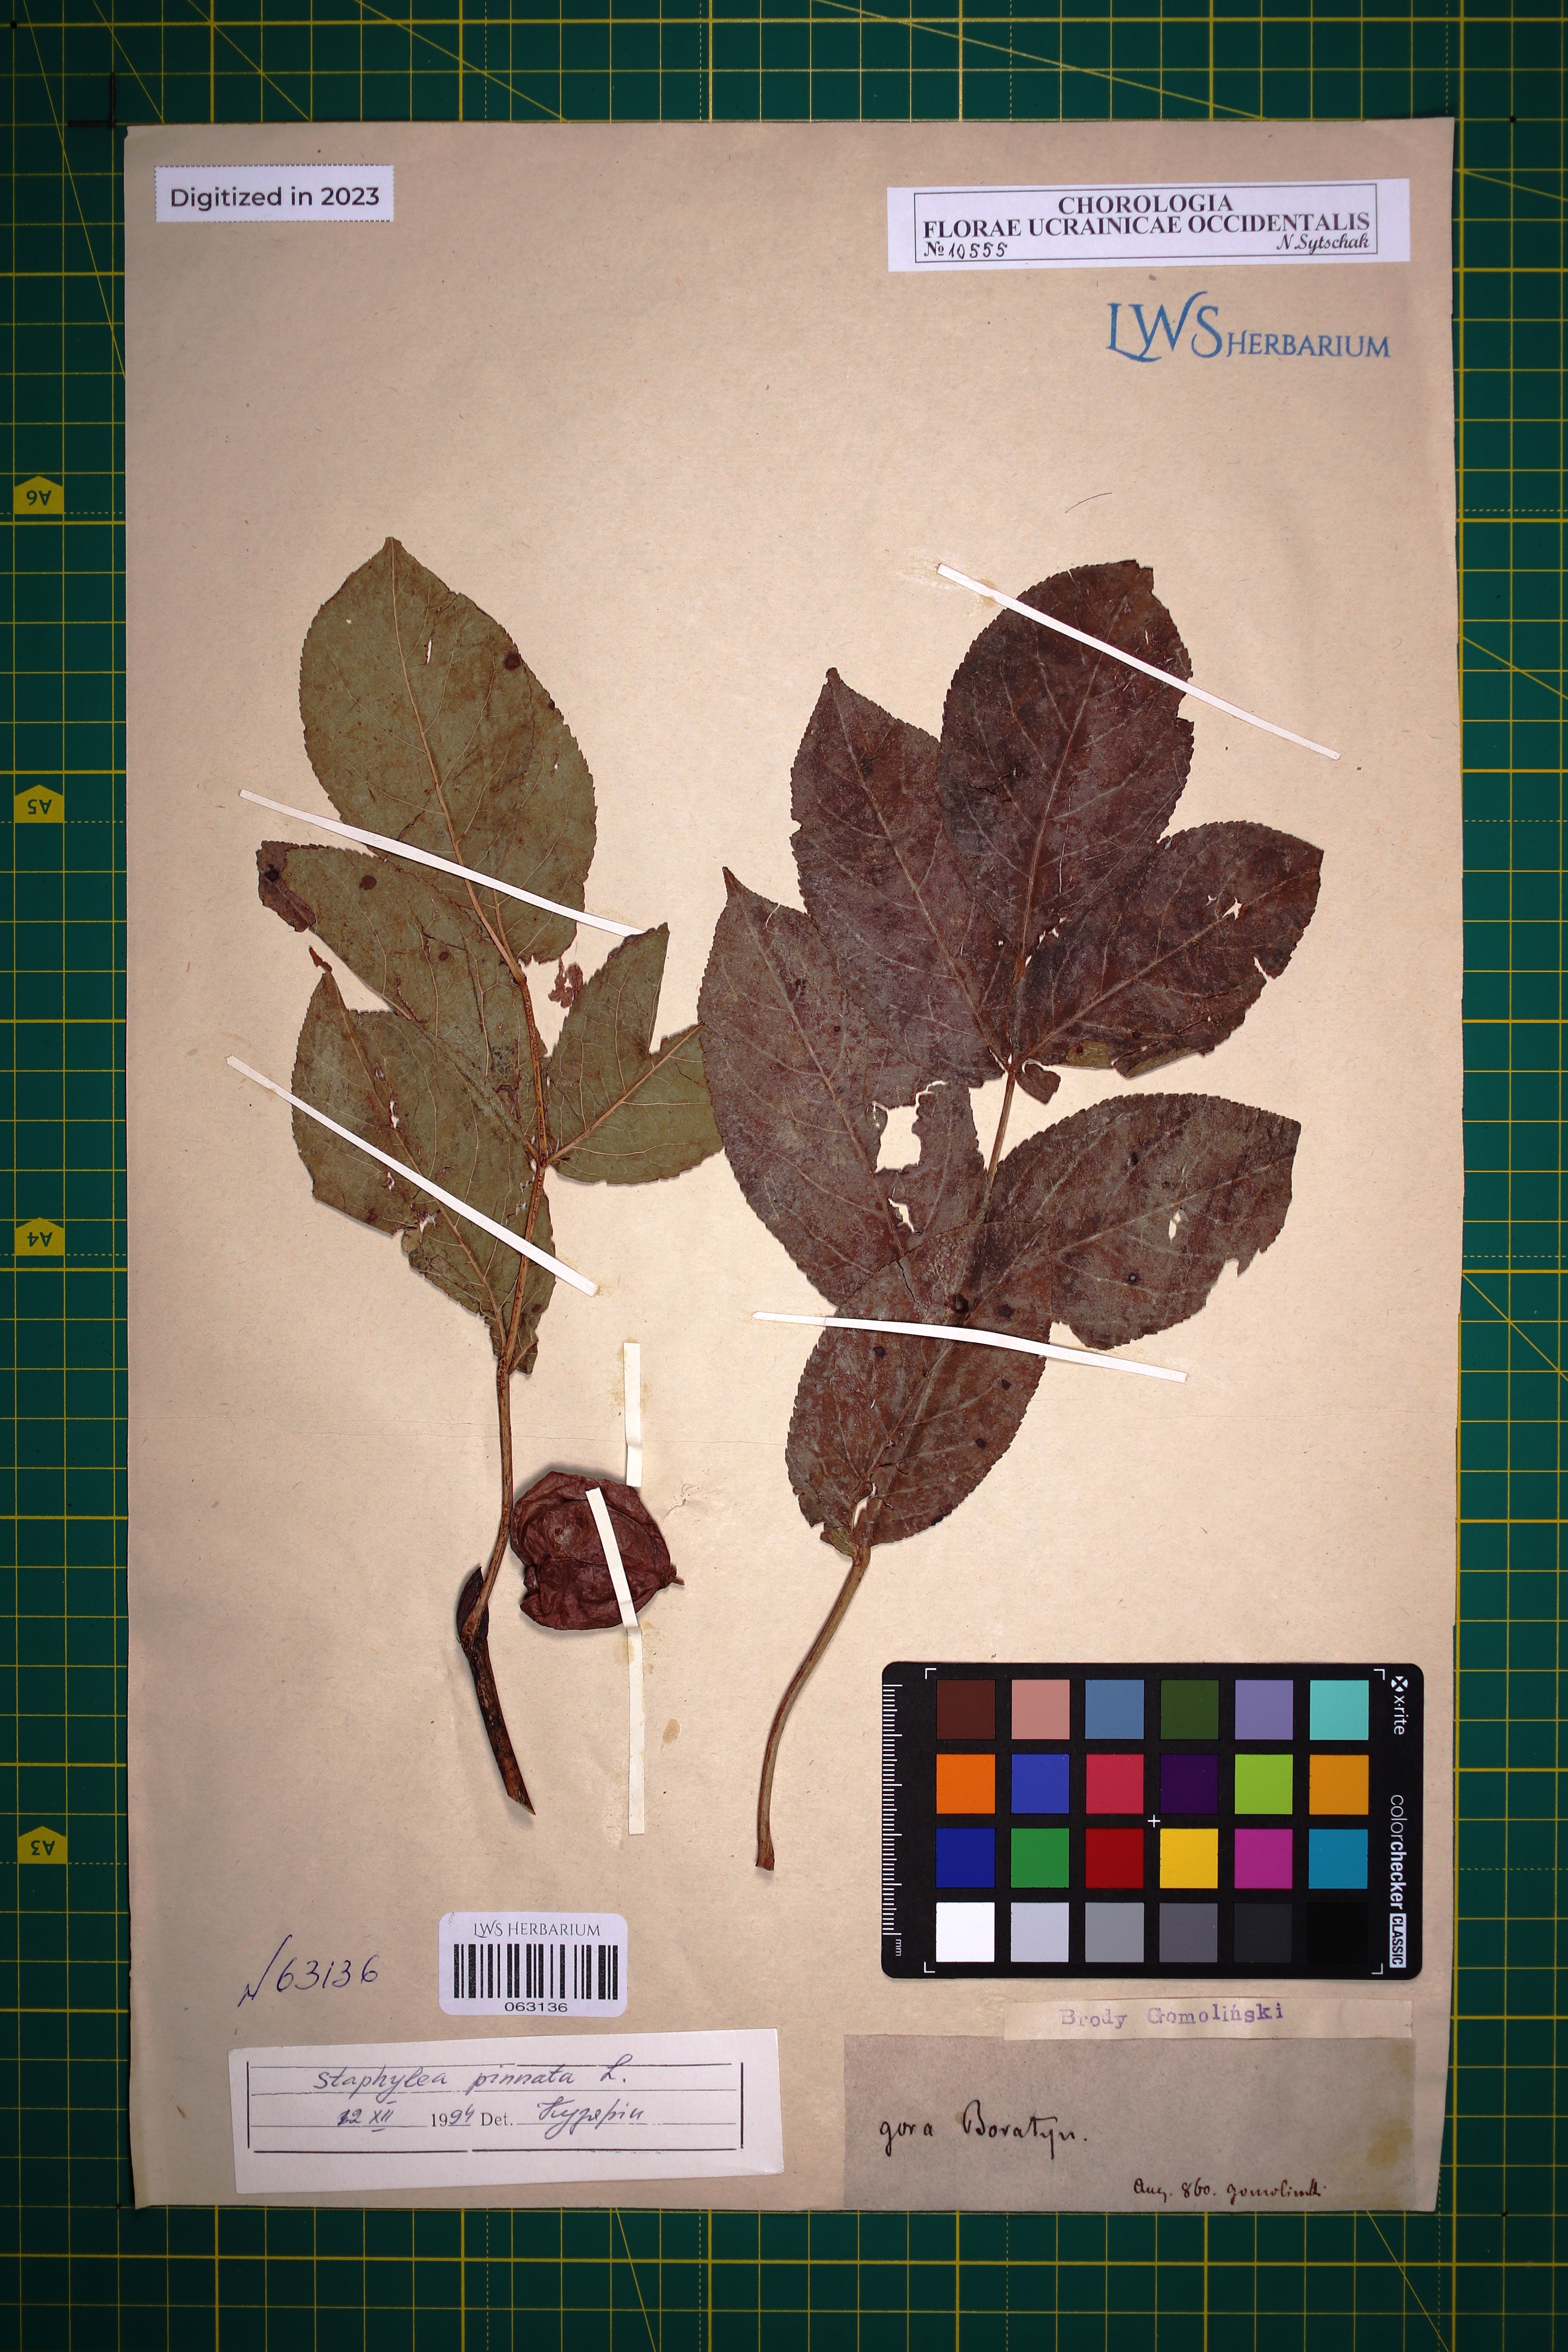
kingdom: Plantae
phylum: Tracheophyta
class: Magnoliopsida
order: Crossosomatales
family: Staphyleaceae
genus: Staphylea
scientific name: Staphylea pinnata
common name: Bladdernut
